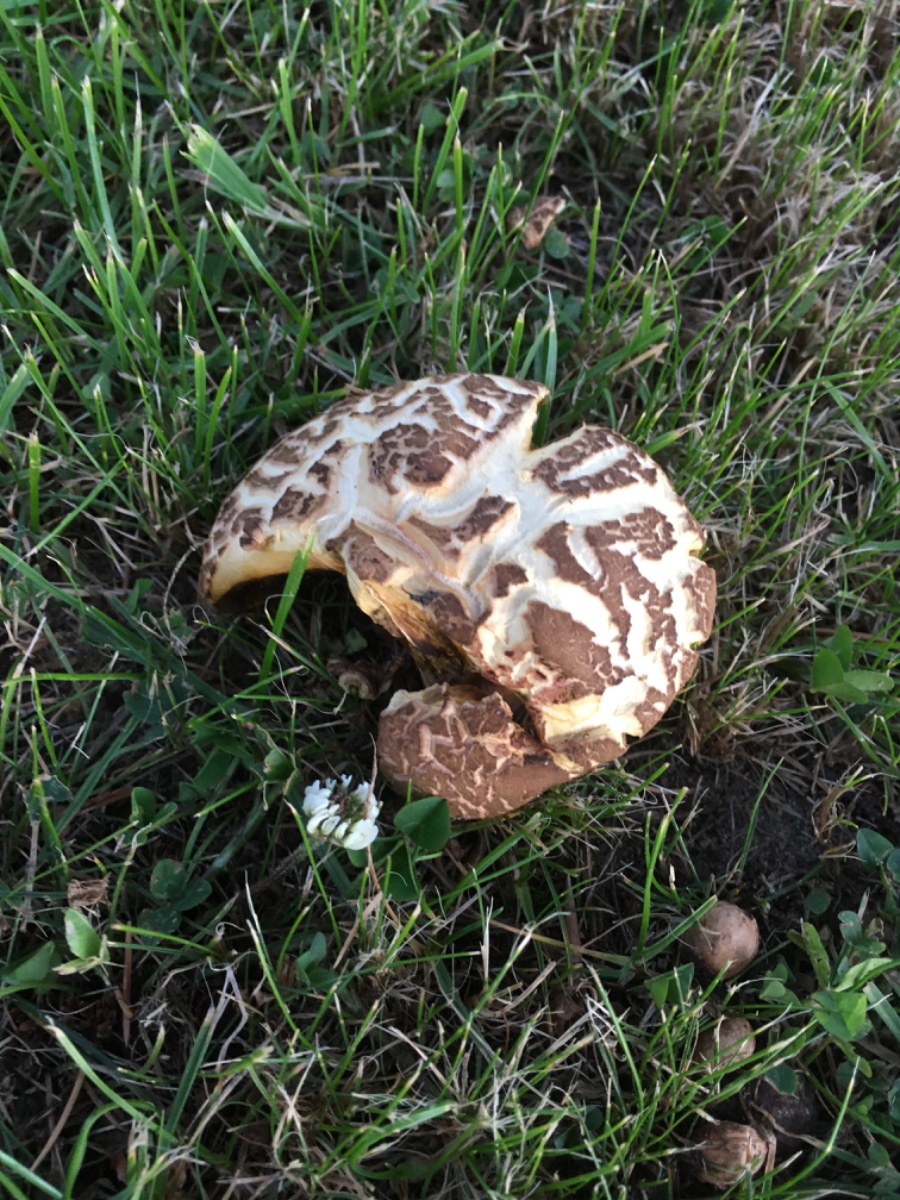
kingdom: Fungi
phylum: Basidiomycota
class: Agaricomycetes
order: Boletales
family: Boletaceae
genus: Xerocomellus
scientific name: Xerocomellus
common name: dværgrørhat
